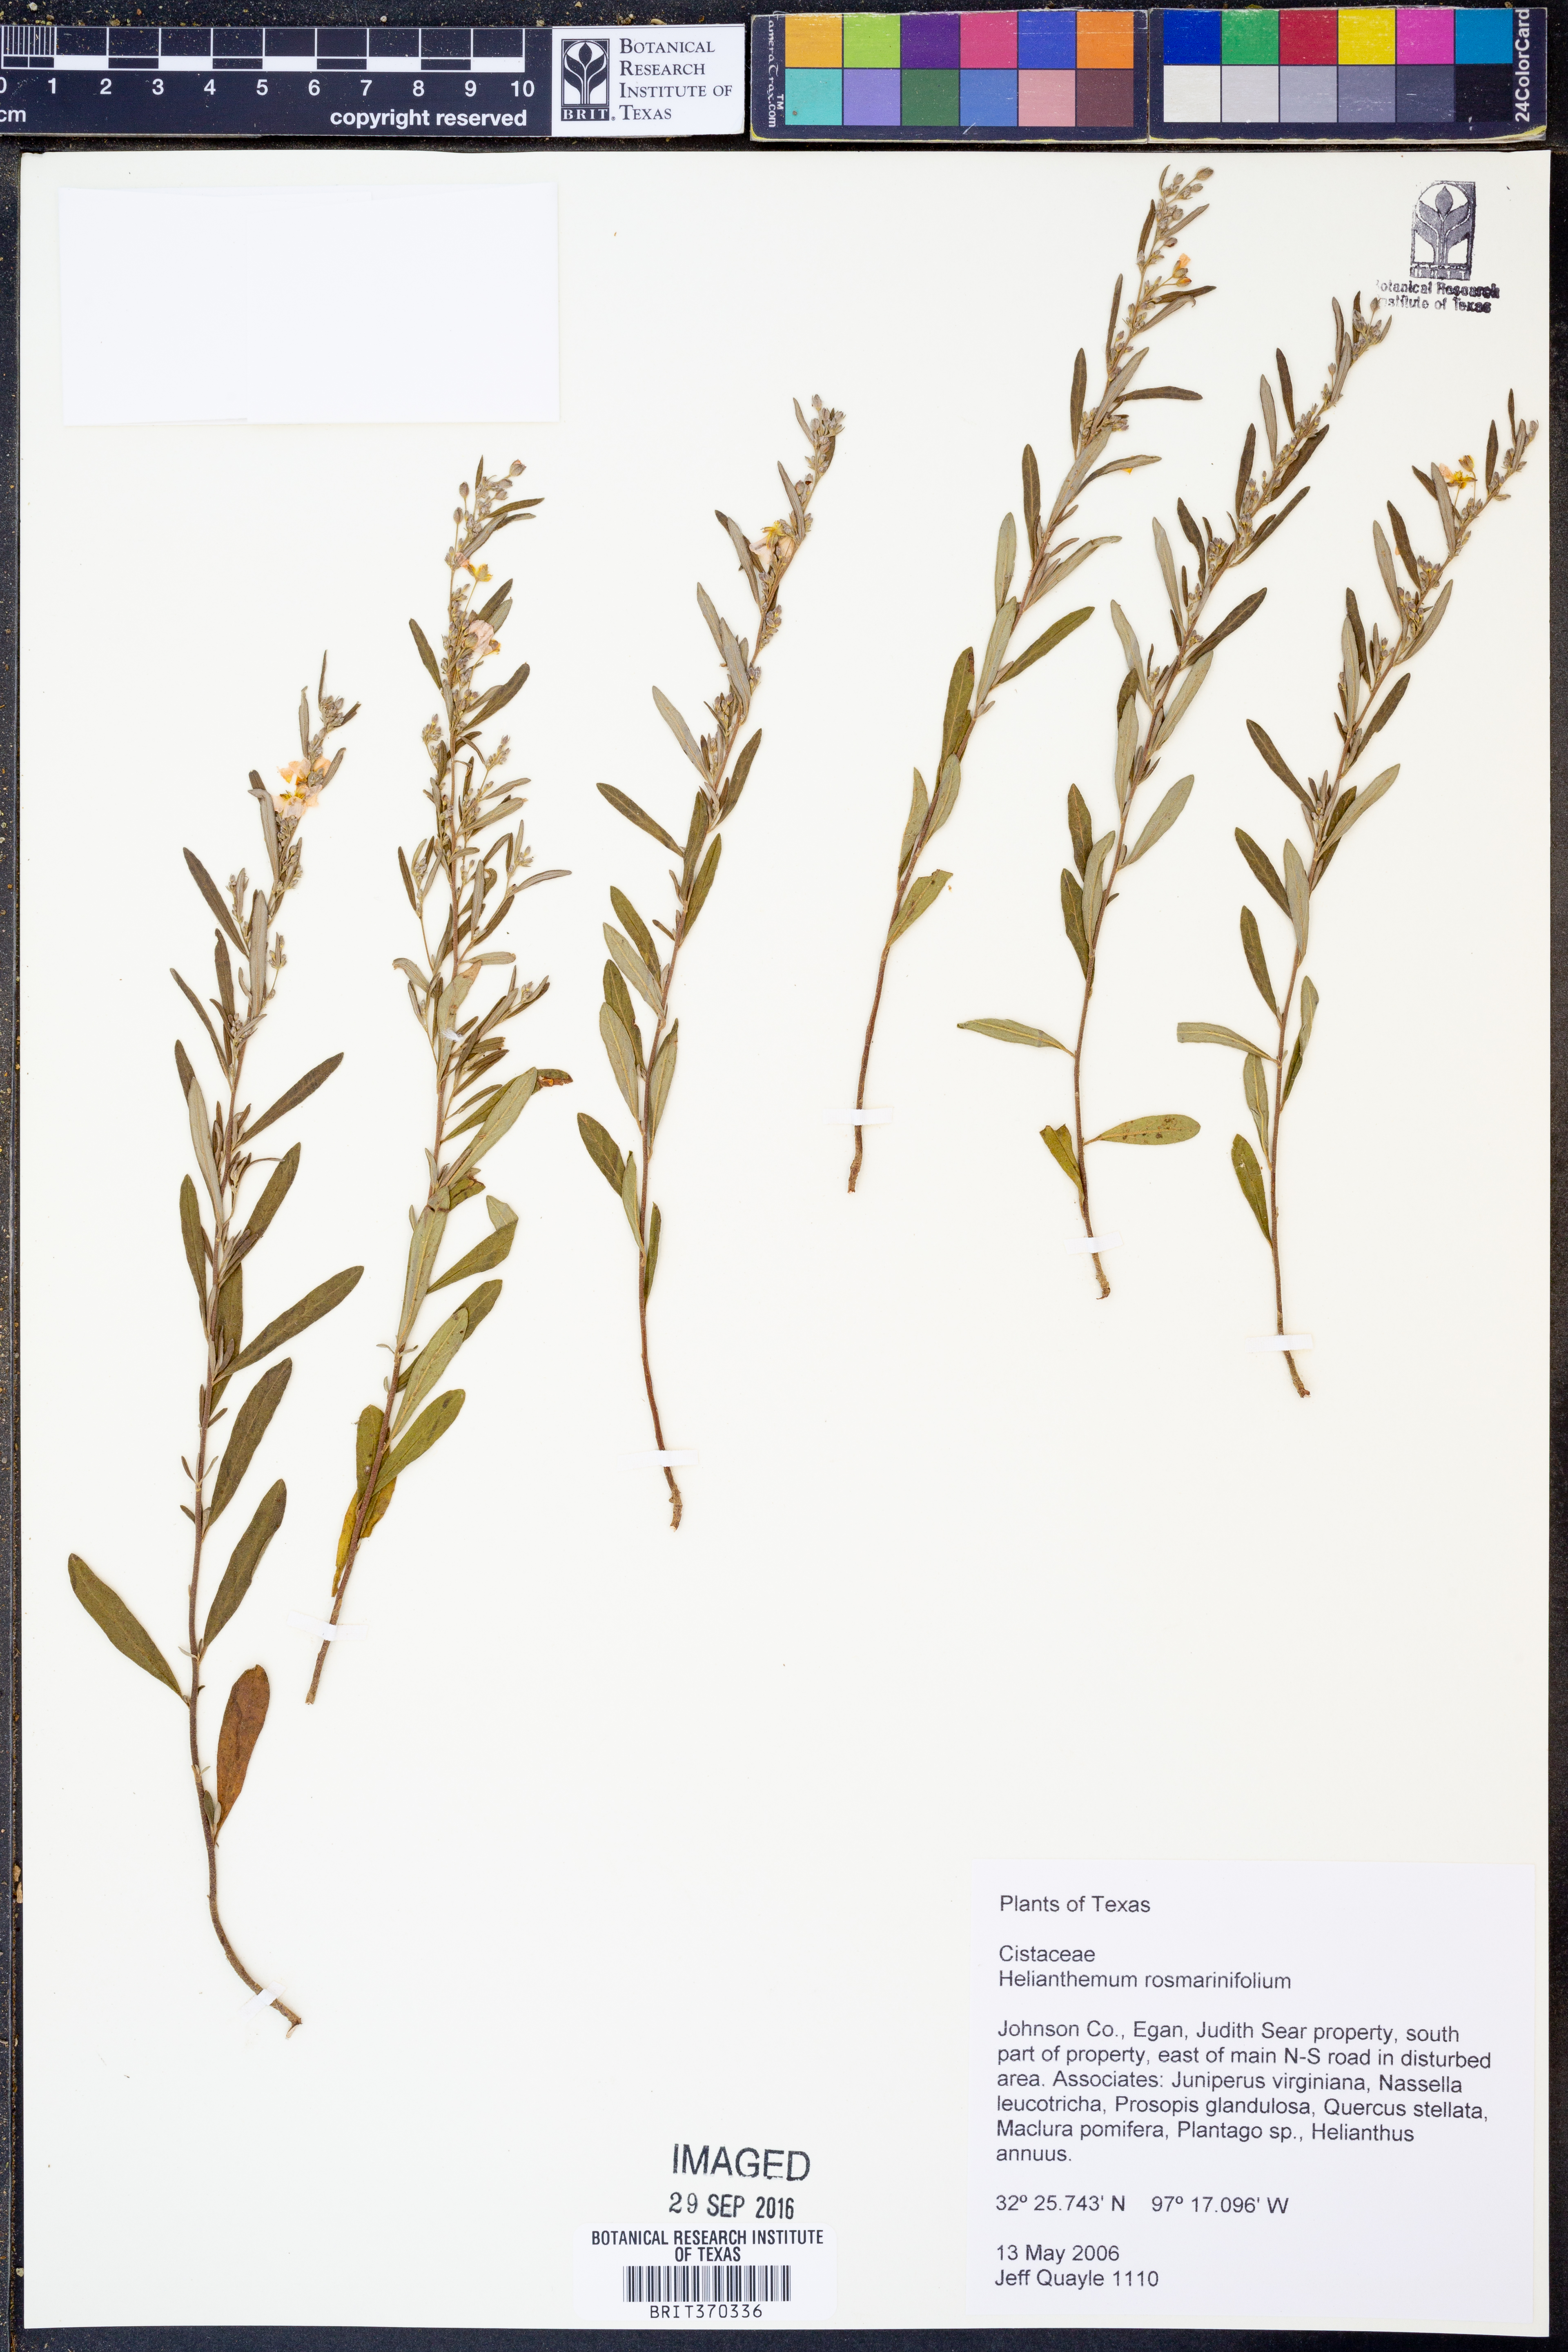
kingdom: Plantae
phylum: Tracheophyta
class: Magnoliopsida
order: Malvales
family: Cistaceae
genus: Crocanthemum
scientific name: Crocanthemum rosmarinifolium
